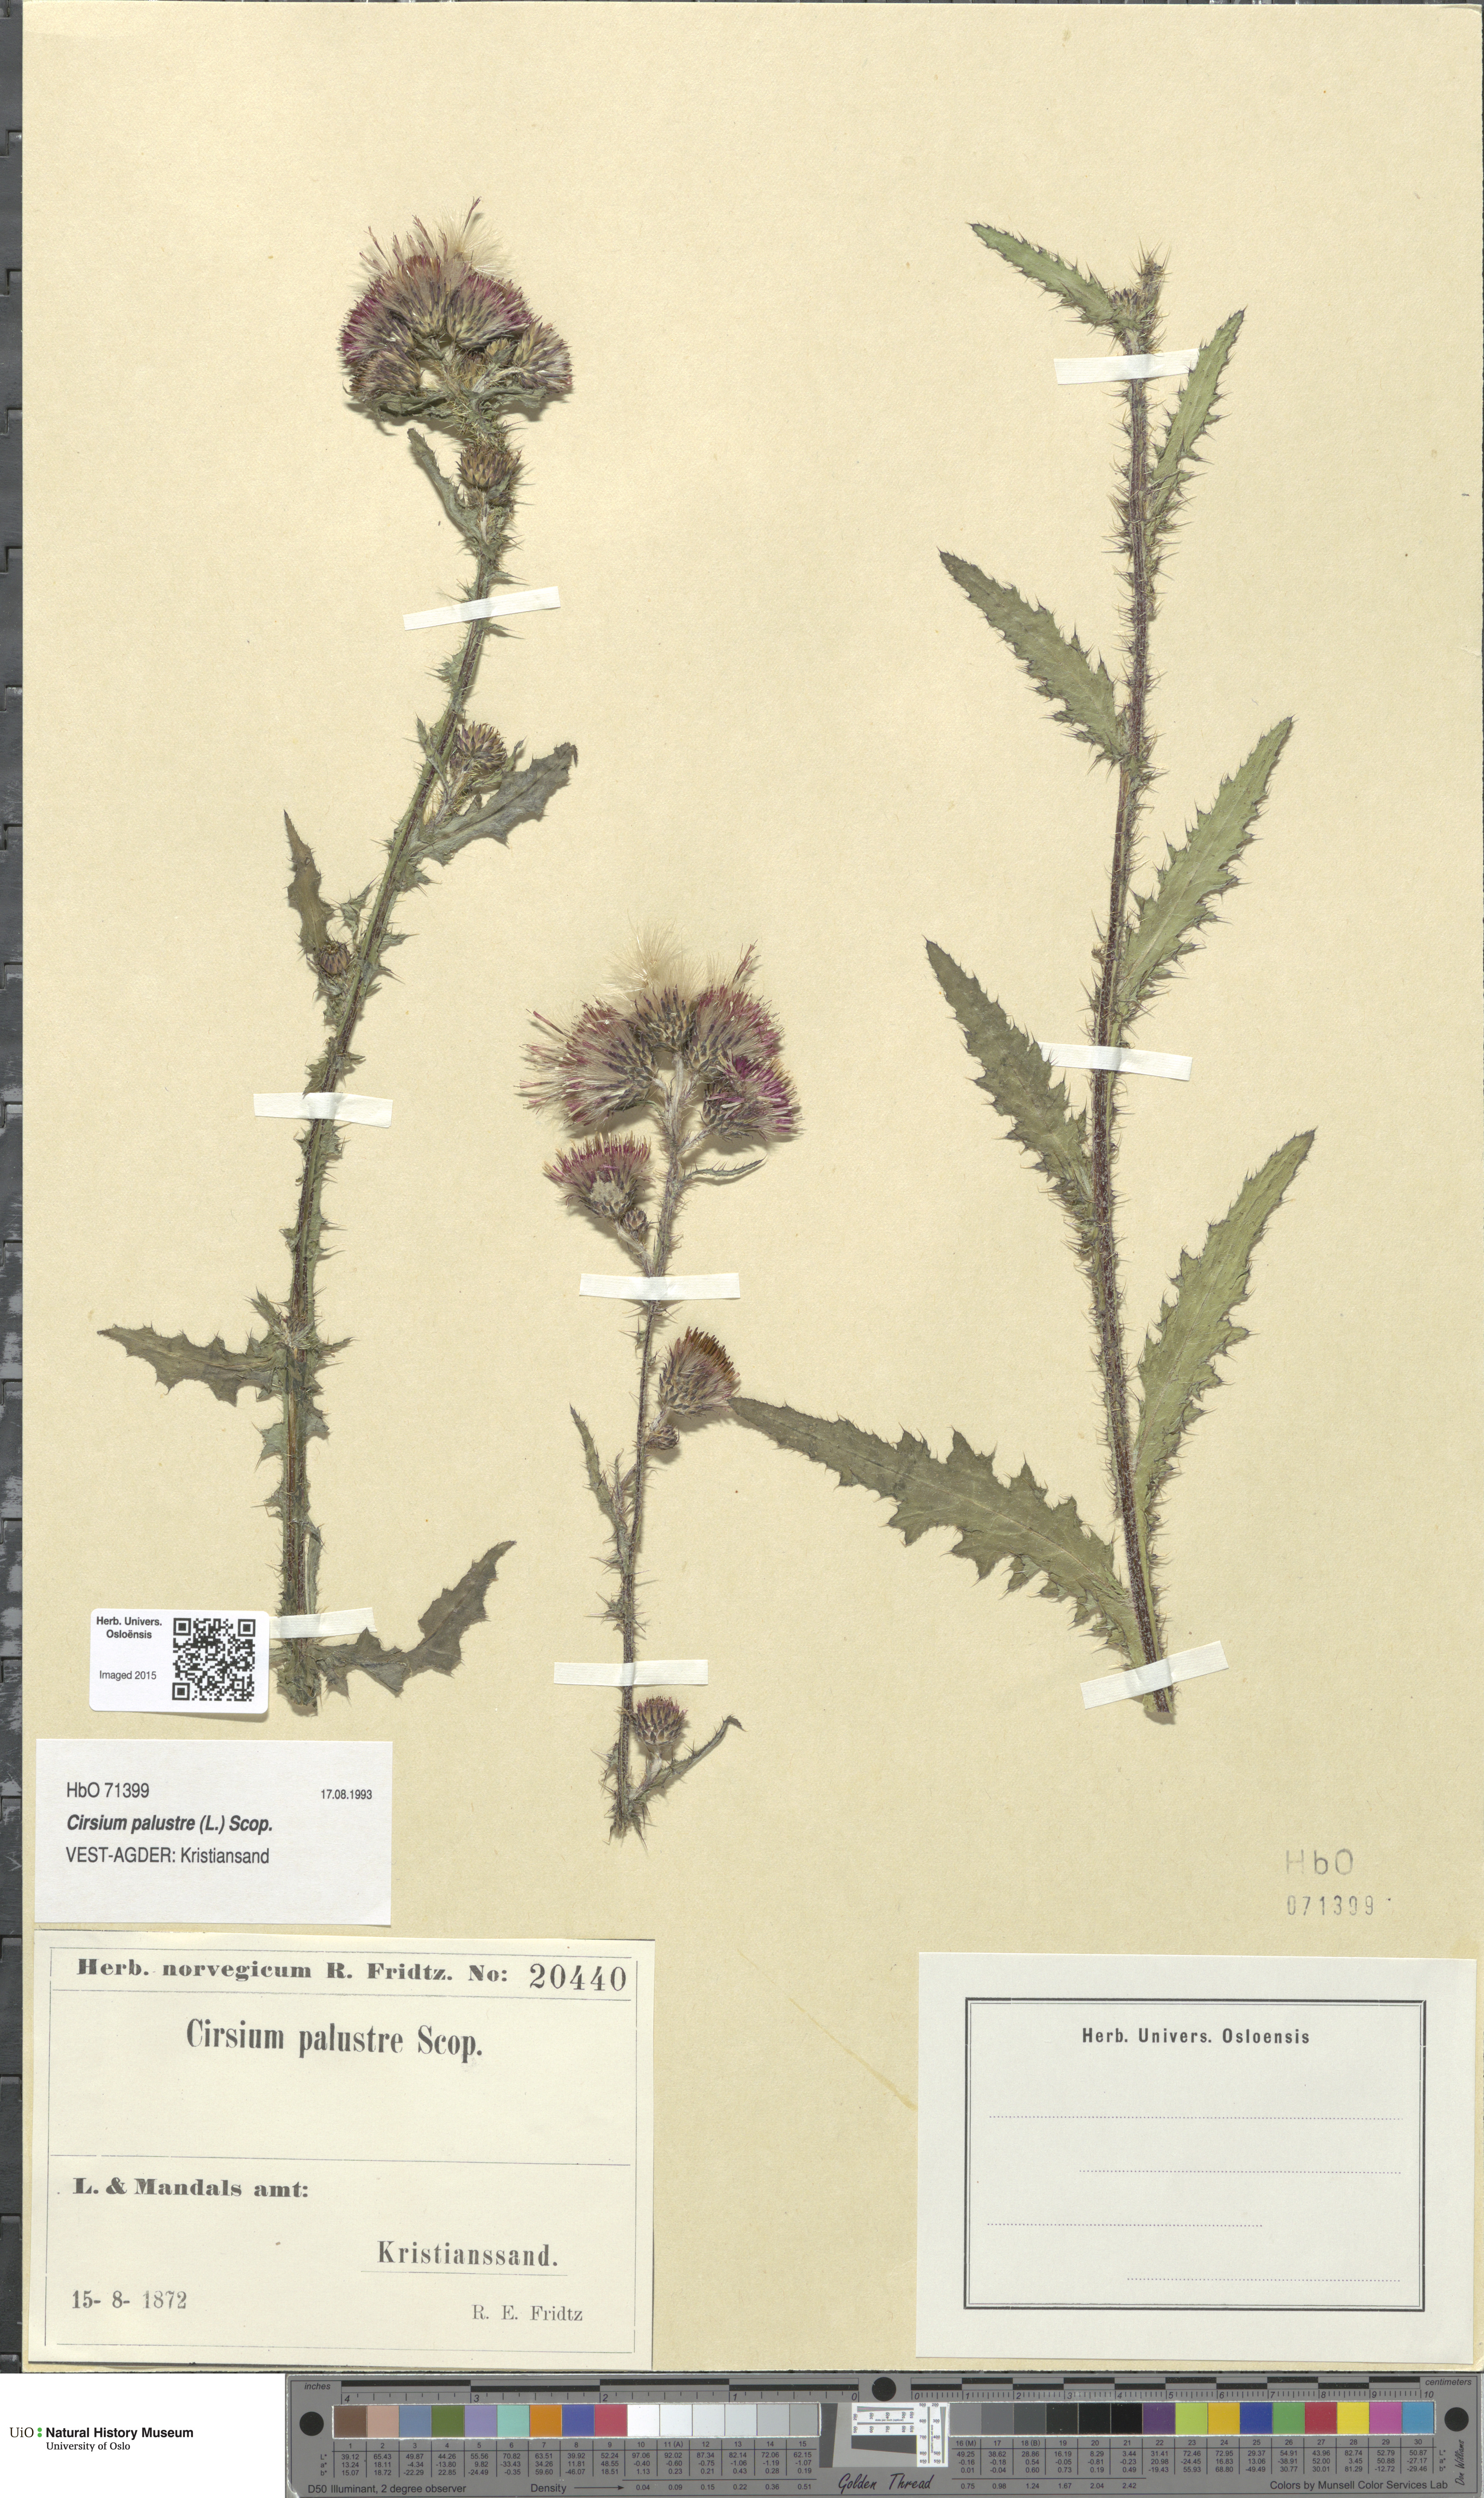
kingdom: Plantae
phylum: Tracheophyta
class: Magnoliopsida
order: Asterales
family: Asteraceae
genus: Cirsium
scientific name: Cirsium palustre
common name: Marsh thistle
